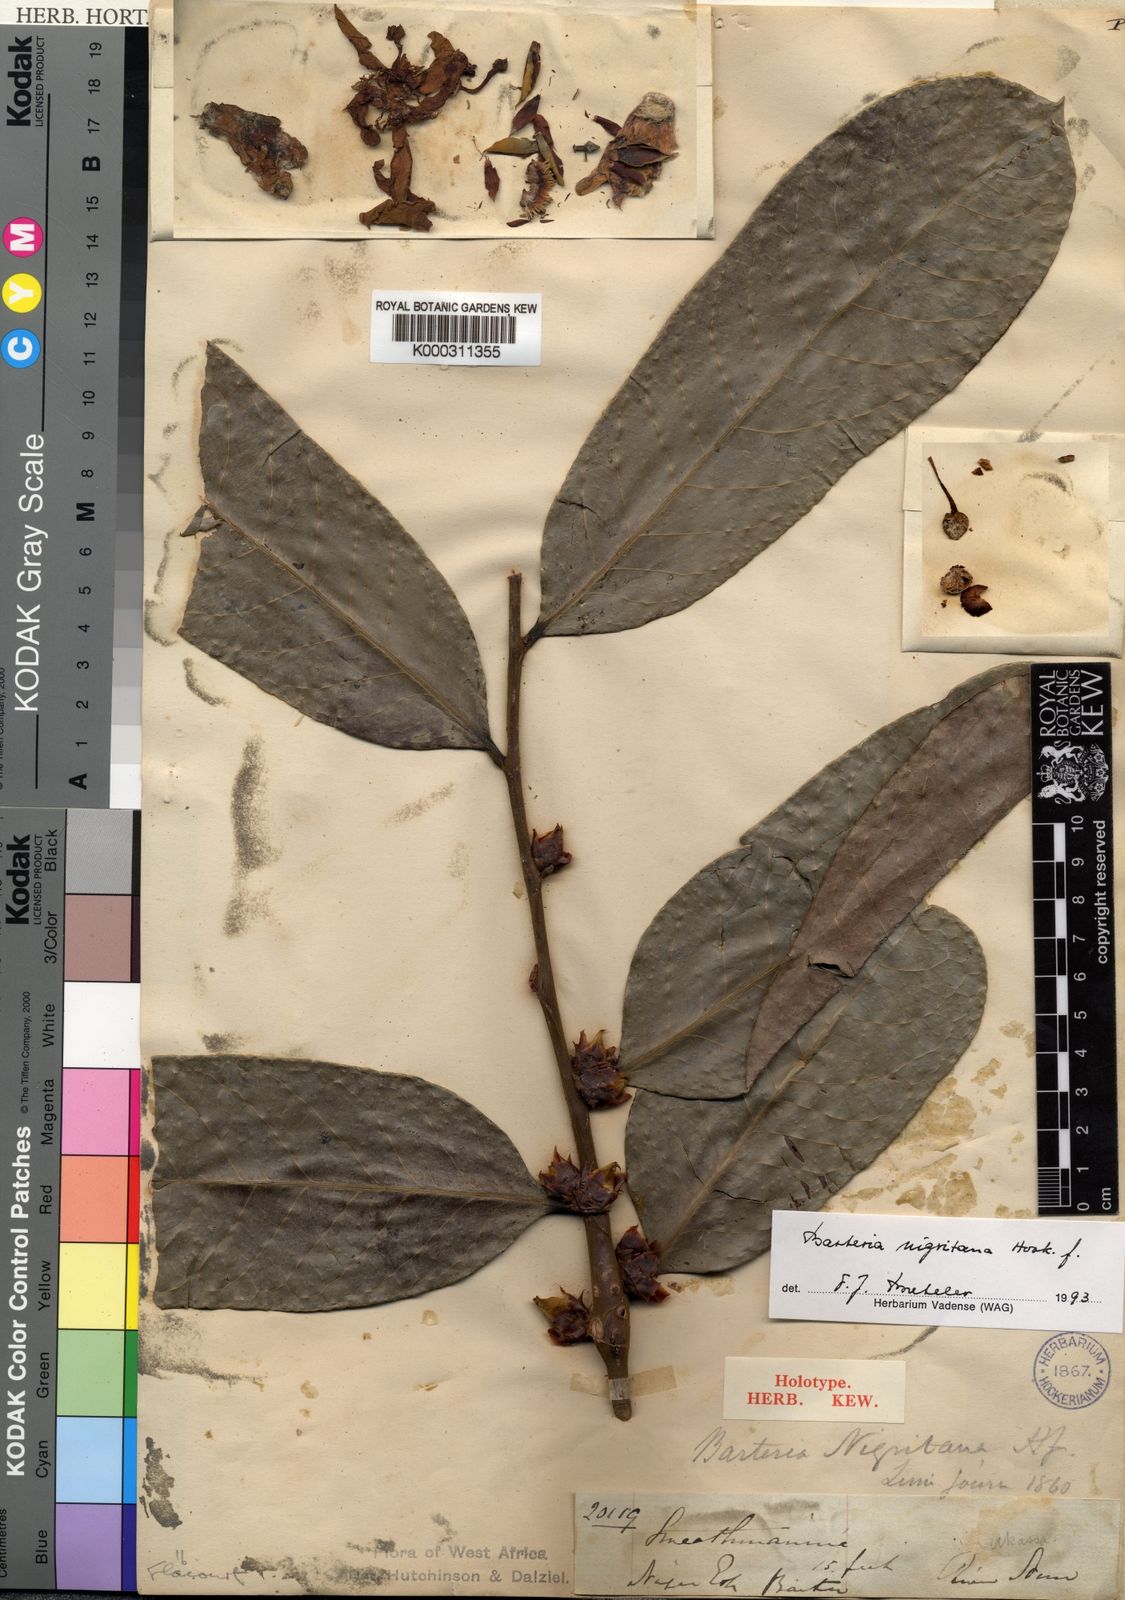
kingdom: Plantae
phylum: Tracheophyta
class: Magnoliopsida
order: Malpighiales
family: Passifloraceae
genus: Barteria
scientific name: Barteria nigritana
